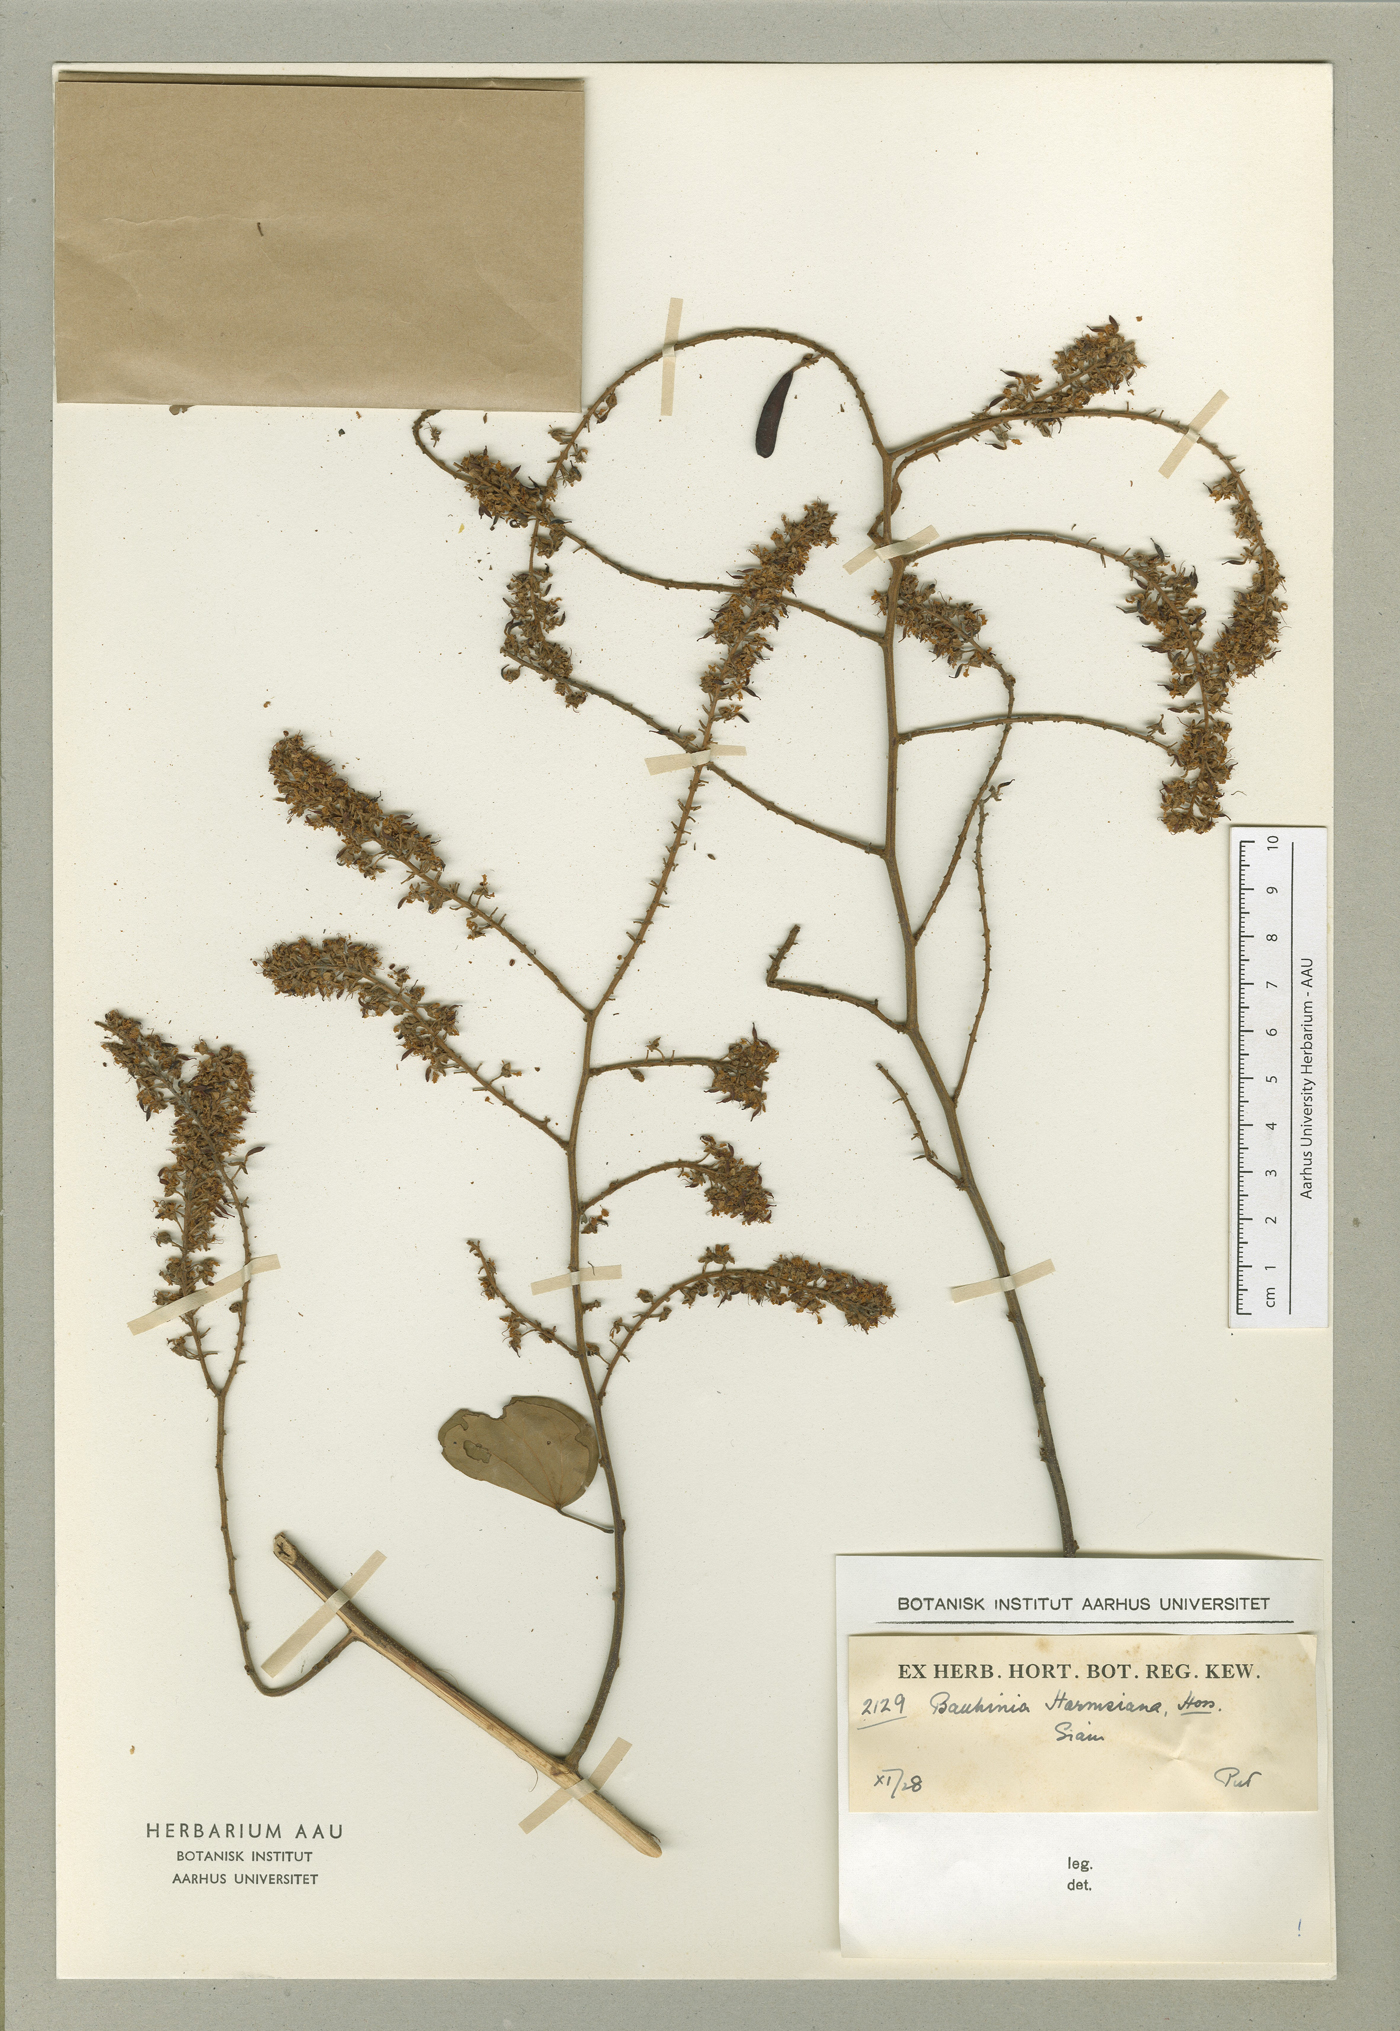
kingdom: Plantae
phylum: Tracheophyta
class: Magnoliopsida
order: Fabales
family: Fabaceae
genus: Phanera
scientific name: Phanera harmsiana
